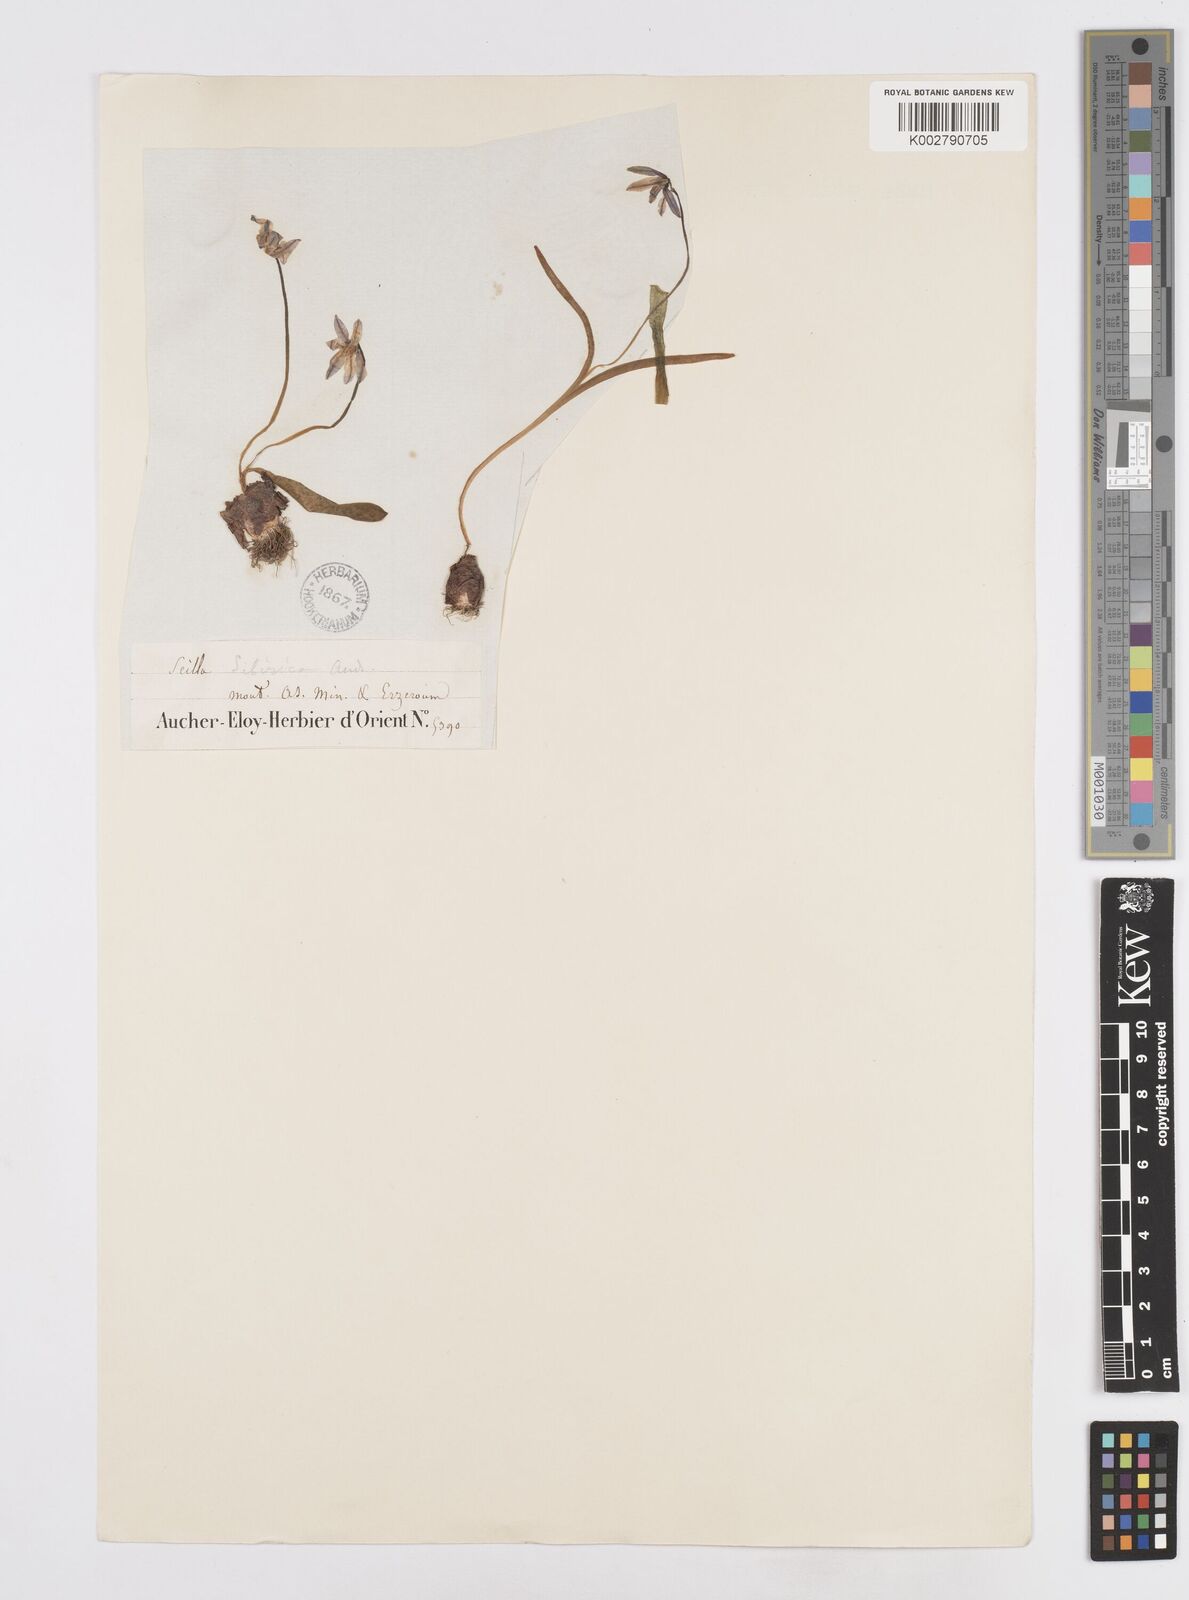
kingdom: Plantae
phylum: Tracheophyta
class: Liliopsida
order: Asparagales
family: Asparagaceae
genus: Scilla
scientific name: Scilla siberica
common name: Siberian squill
